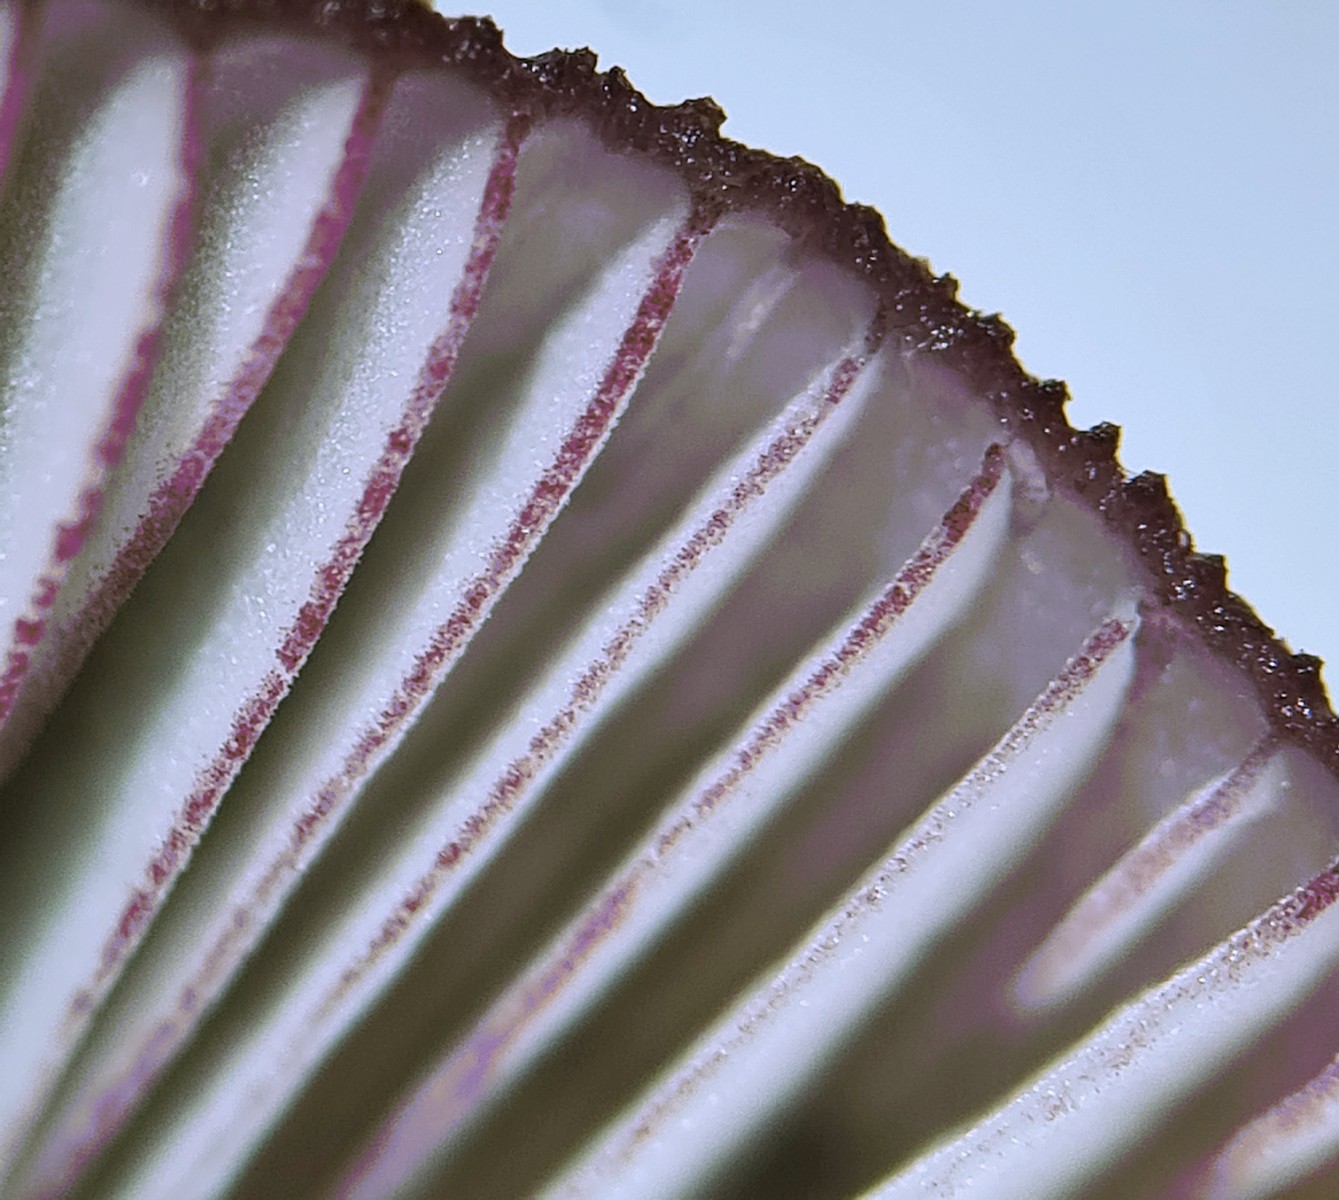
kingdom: Fungi
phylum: Basidiomycota
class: Agaricomycetes
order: Agaricales
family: Mycenaceae
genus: Mycena
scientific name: Mycena purpureofusca
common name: purpur-huesvamp
